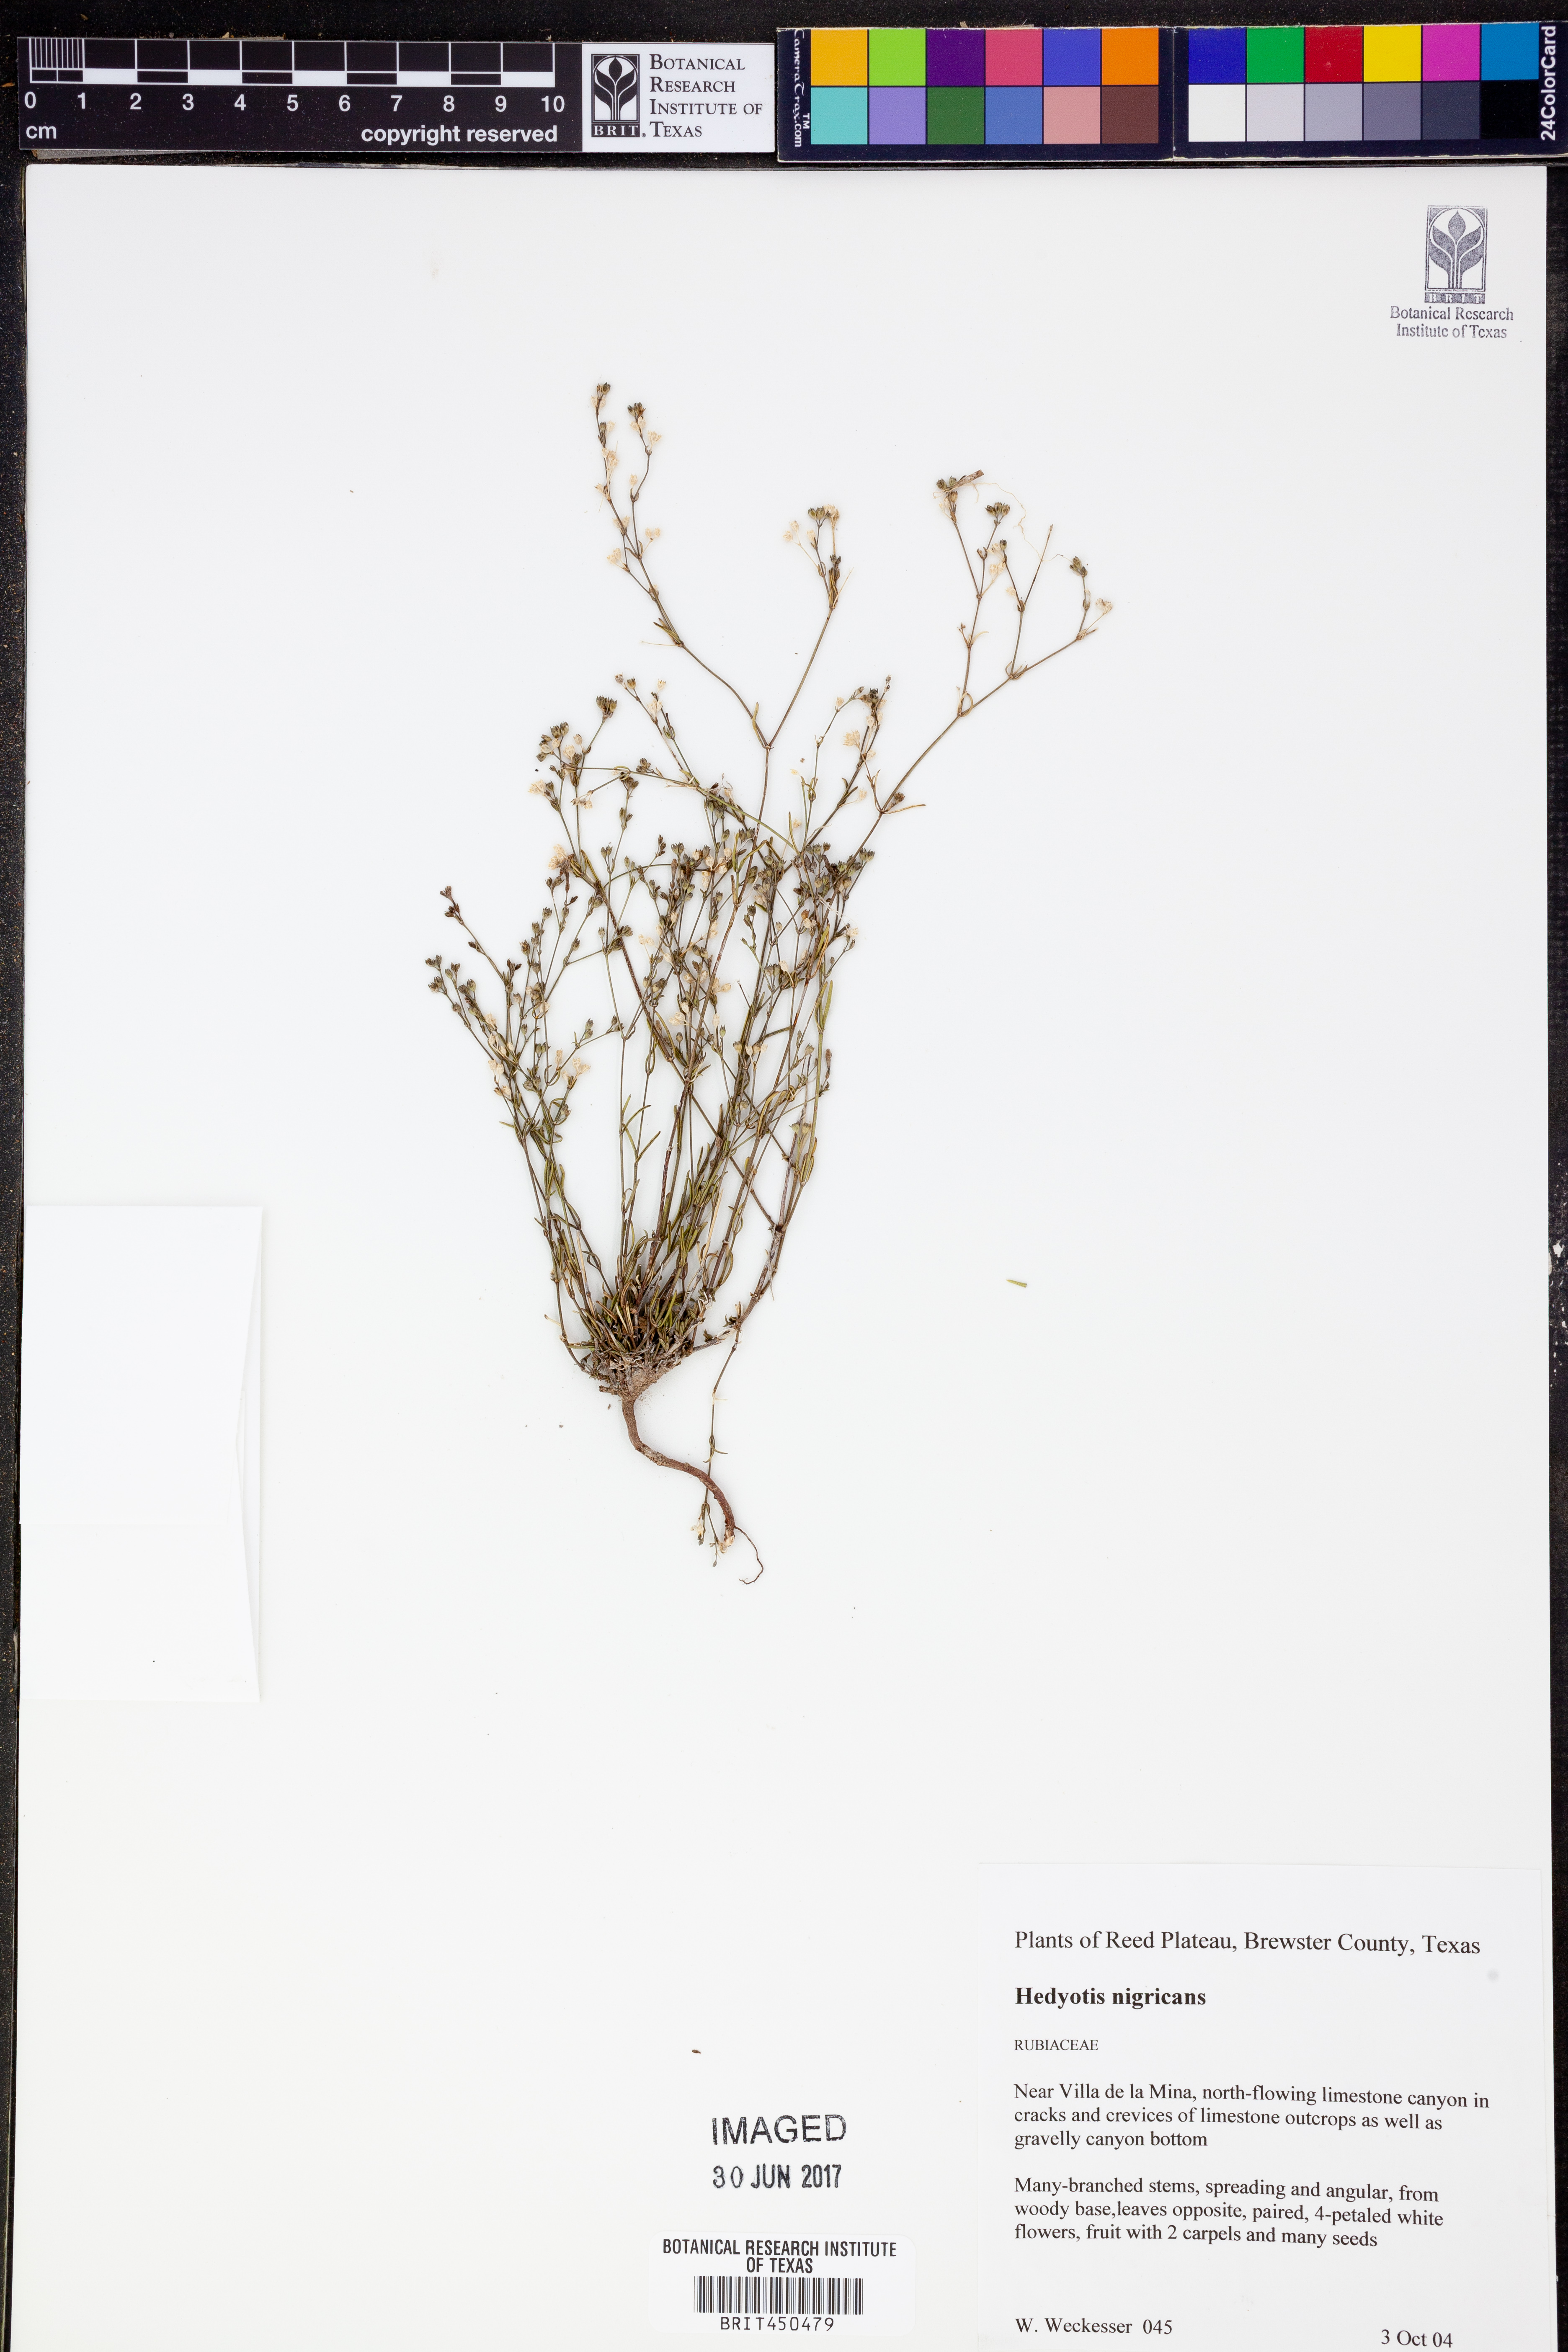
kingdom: Plantae
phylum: Tracheophyta
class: Magnoliopsida
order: Gentianales
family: Rubiaceae
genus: Stenaria
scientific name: Stenaria nigricans
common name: Diamondflowers
